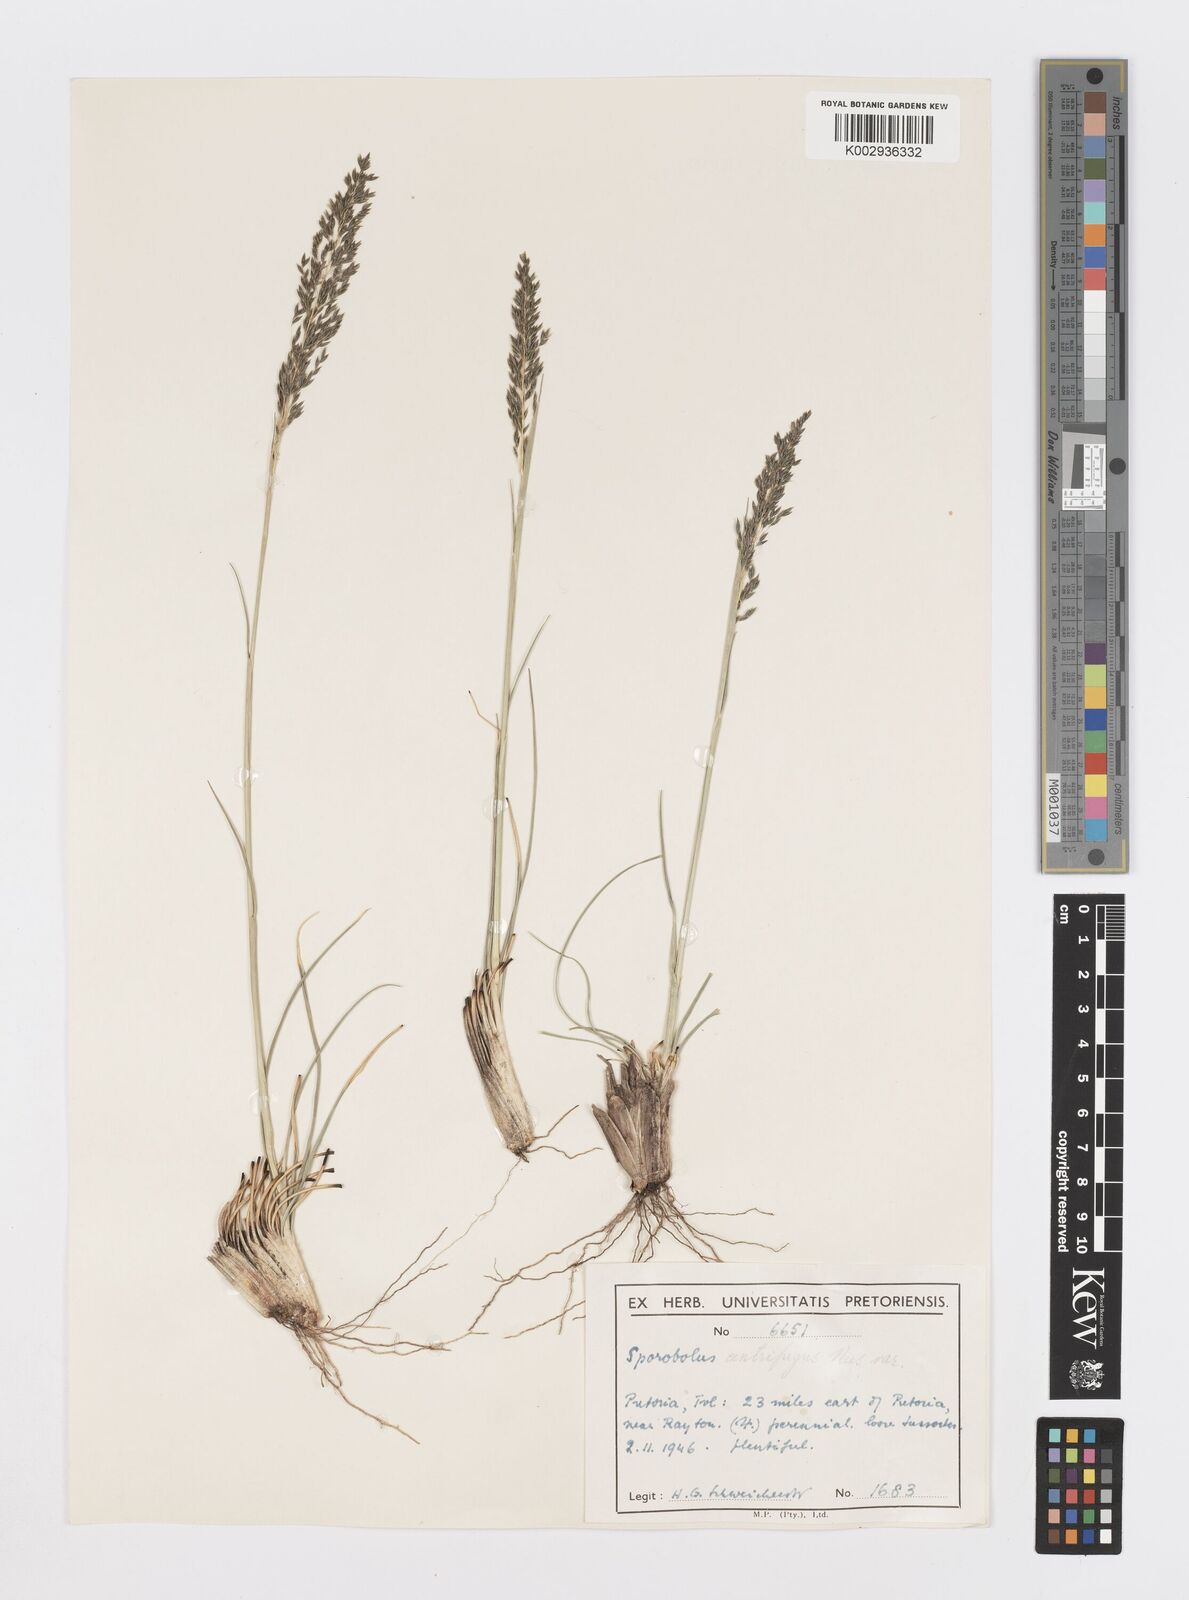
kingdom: Plantae
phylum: Tracheophyta
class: Liliopsida
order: Poales
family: Poaceae
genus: Sporobolus
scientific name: Sporobolus centrifugus
